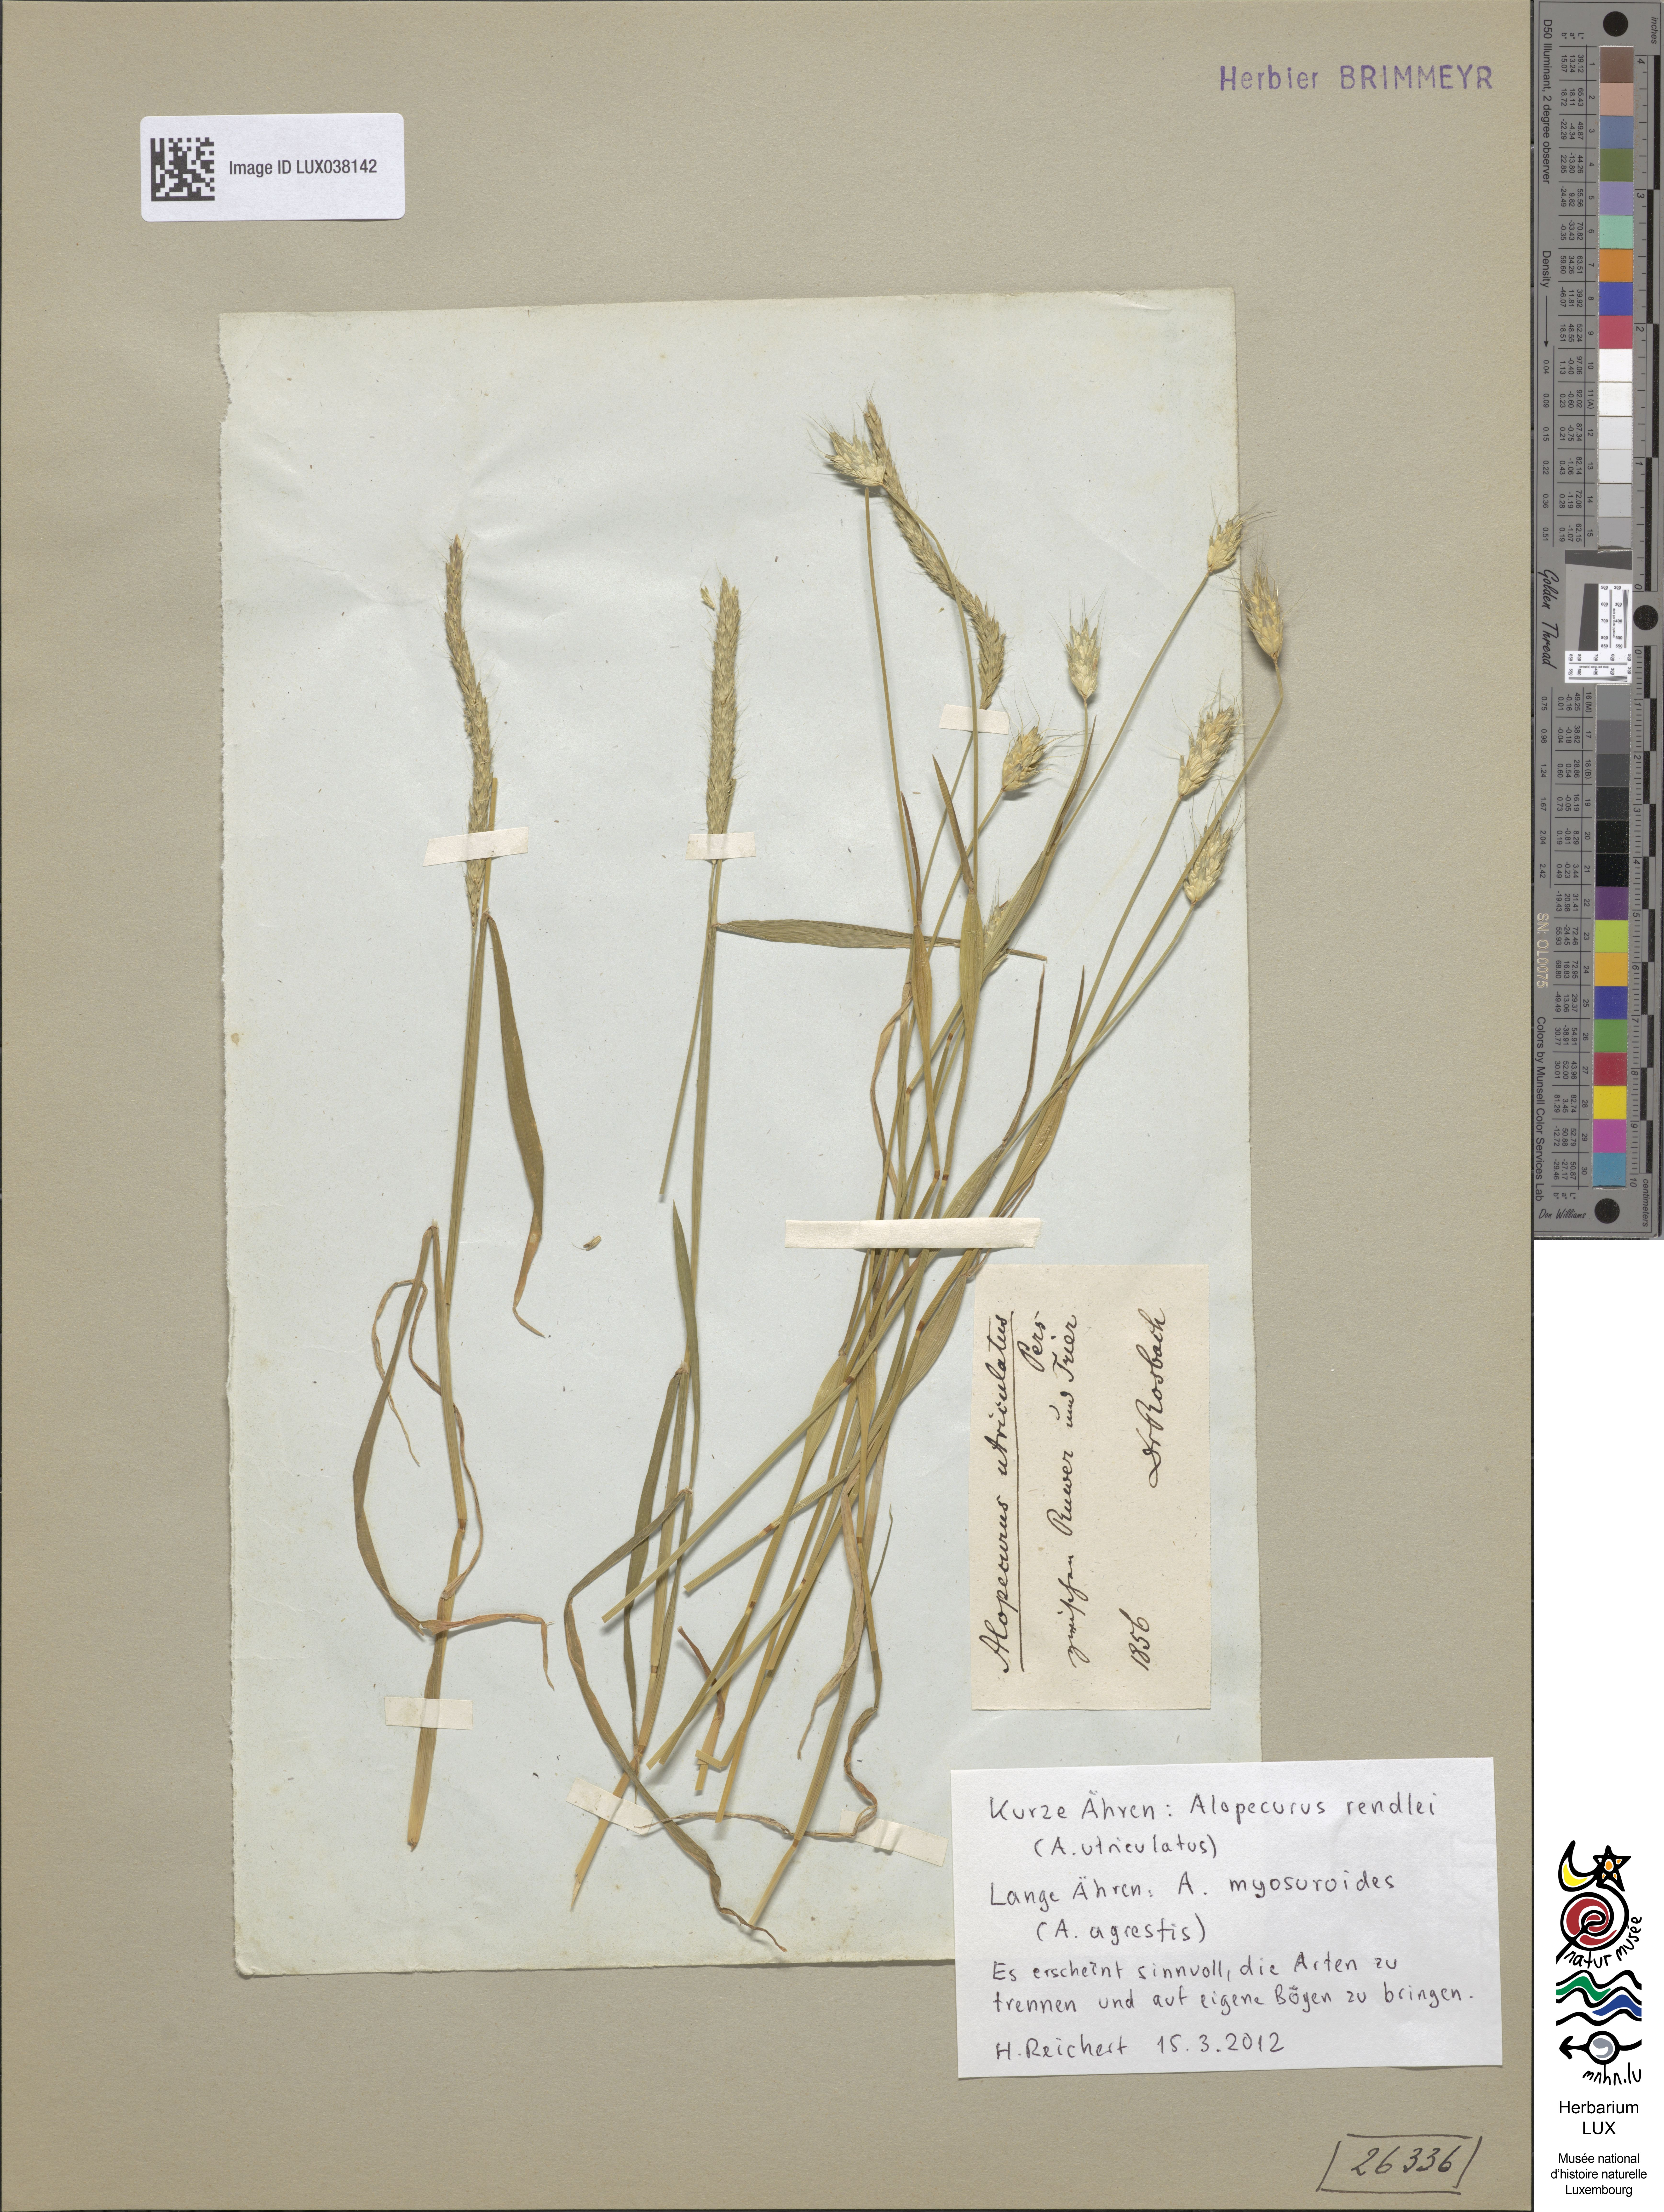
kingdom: Plantae
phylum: Tracheophyta
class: Liliopsida
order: Poales
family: Poaceae
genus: Alopecurus
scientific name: Alopecurus rendlei
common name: Rendle's meadow foxtail
